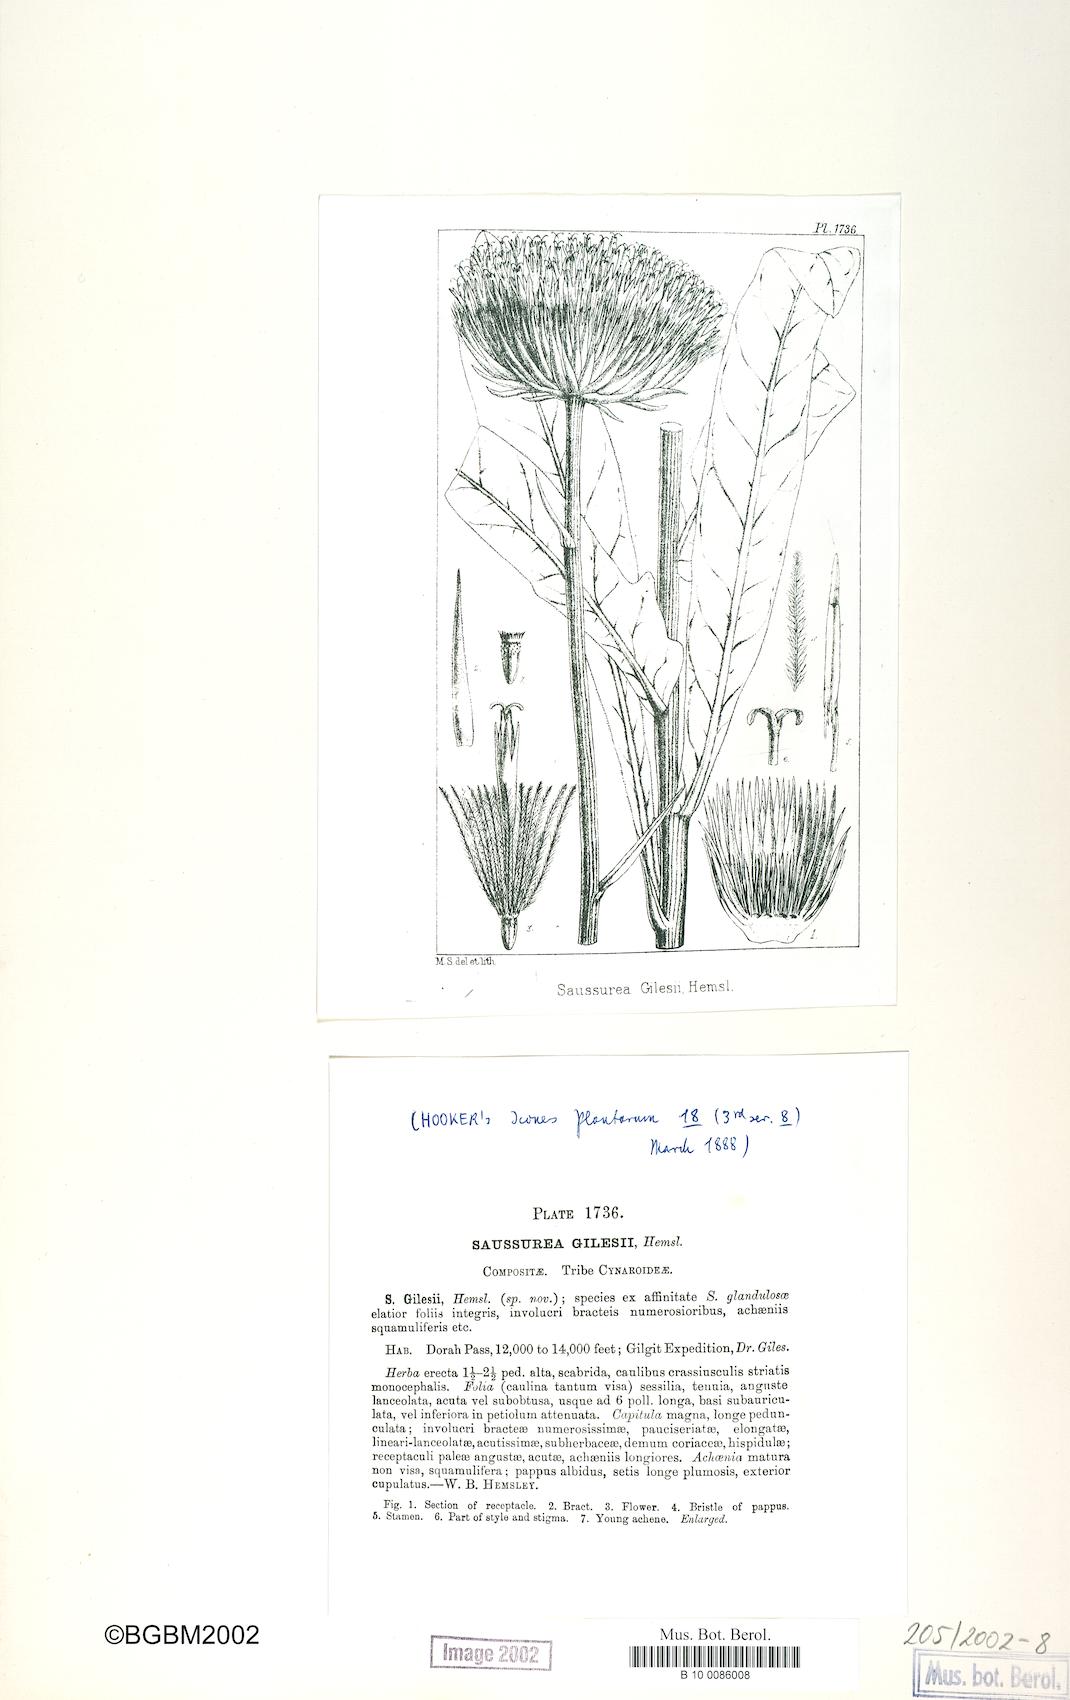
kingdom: Plantae
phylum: Tracheophyta
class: Magnoliopsida
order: Asterales
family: Asteraceae
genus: Jurinea
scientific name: Jurinea gilesii
